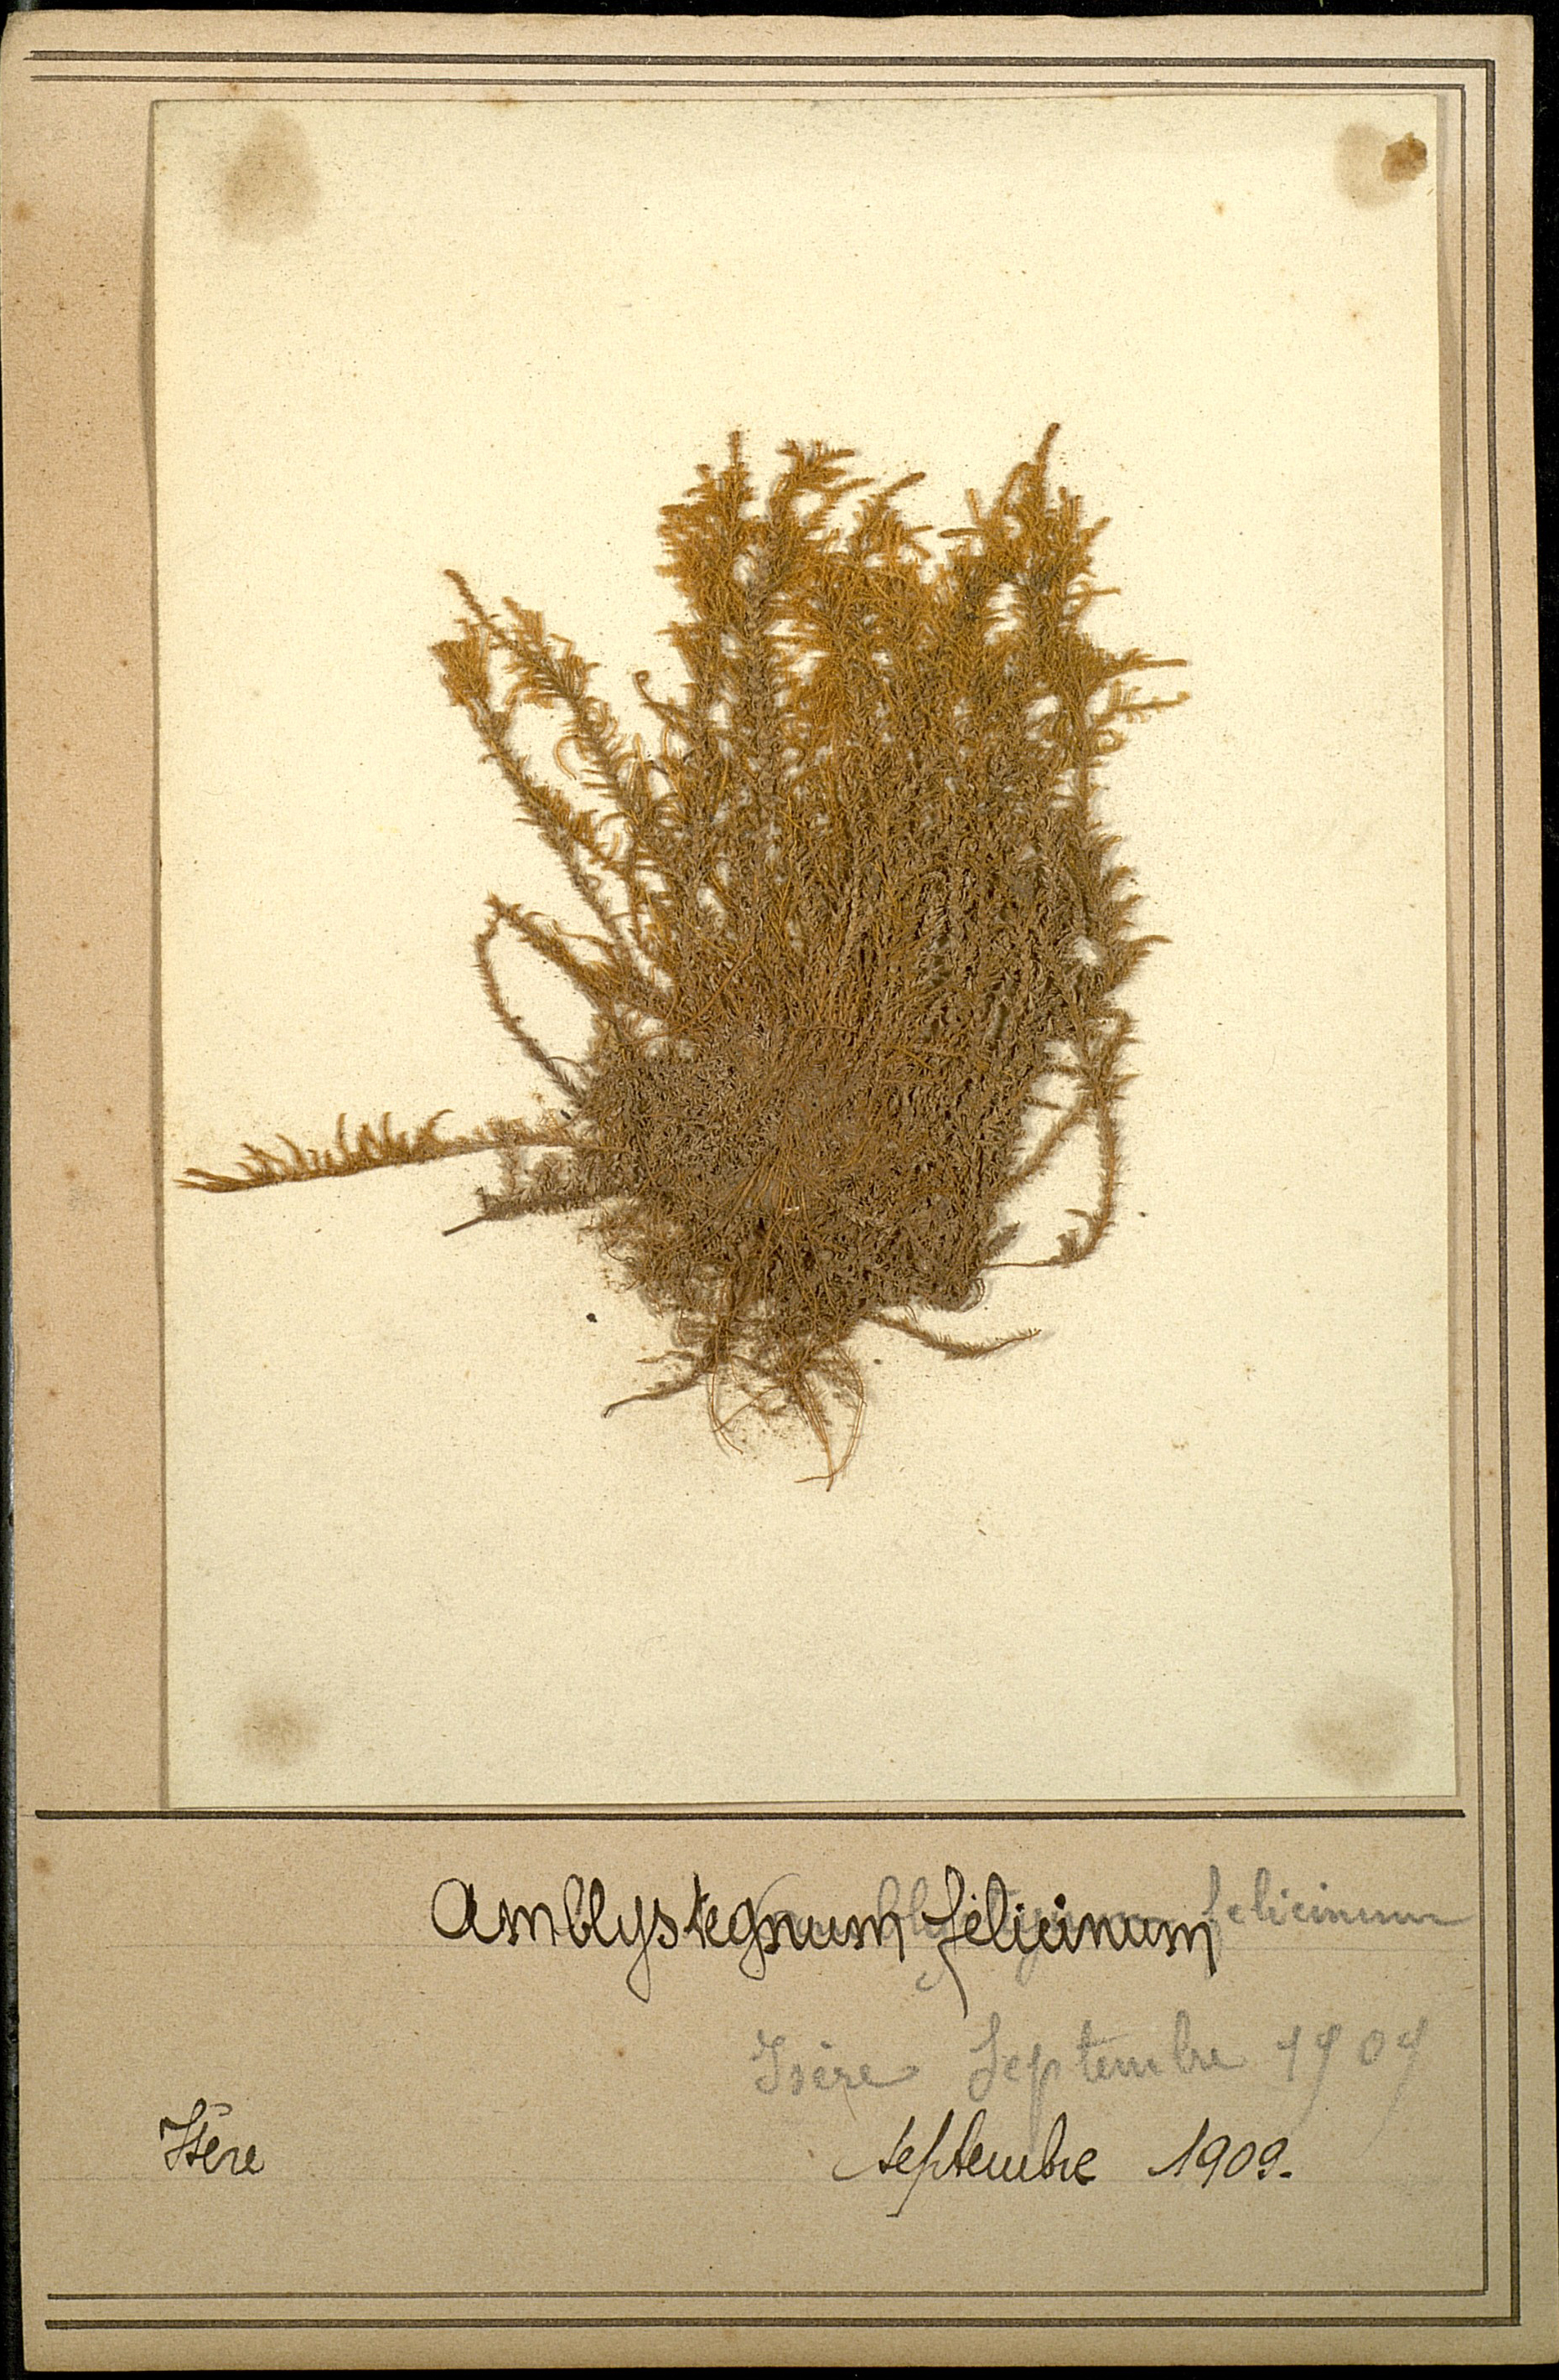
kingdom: Plantae
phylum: Bryophyta
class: Bryopsida
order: Hypnales
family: Amblystegiaceae
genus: Cratoneuron
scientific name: Cratoneuron filicinum
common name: Fern-leaved hook moss
